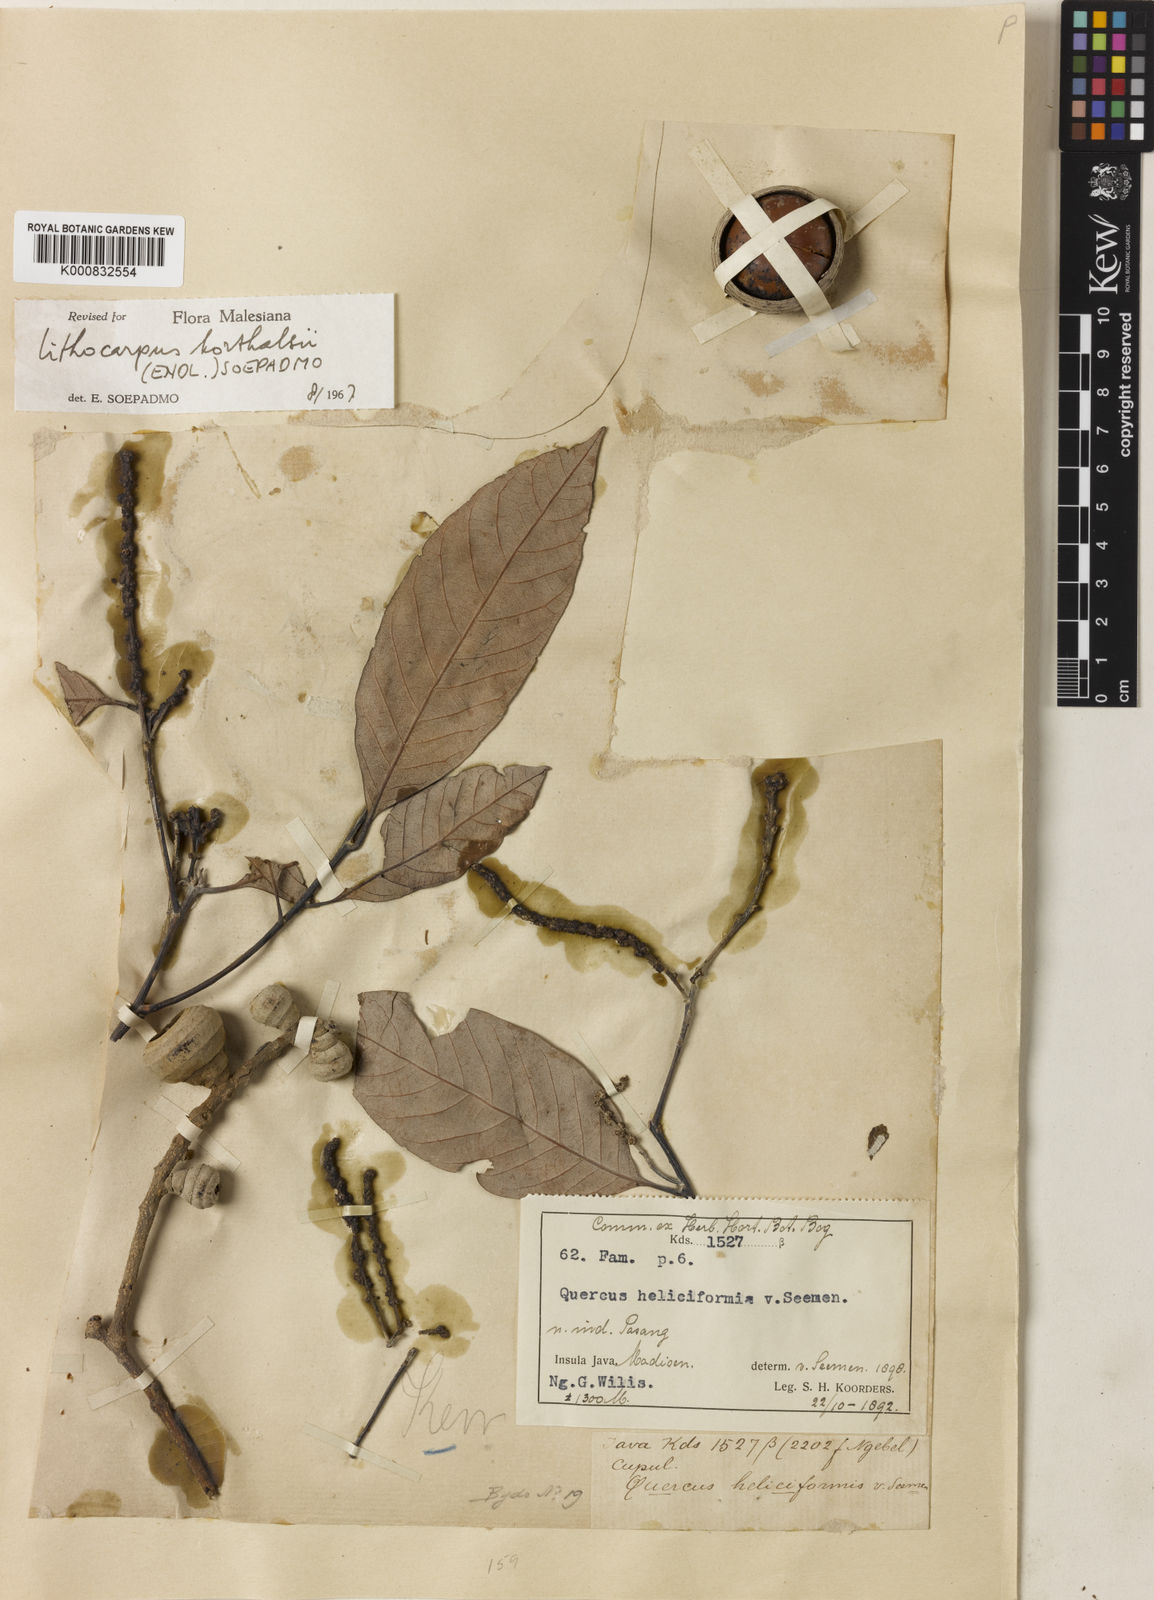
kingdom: Plantae
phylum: Tracheophyta
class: Magnoliopsida
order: Fagales
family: Fagaceae
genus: Lithocarpus
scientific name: Lithocarpus korthalsii
